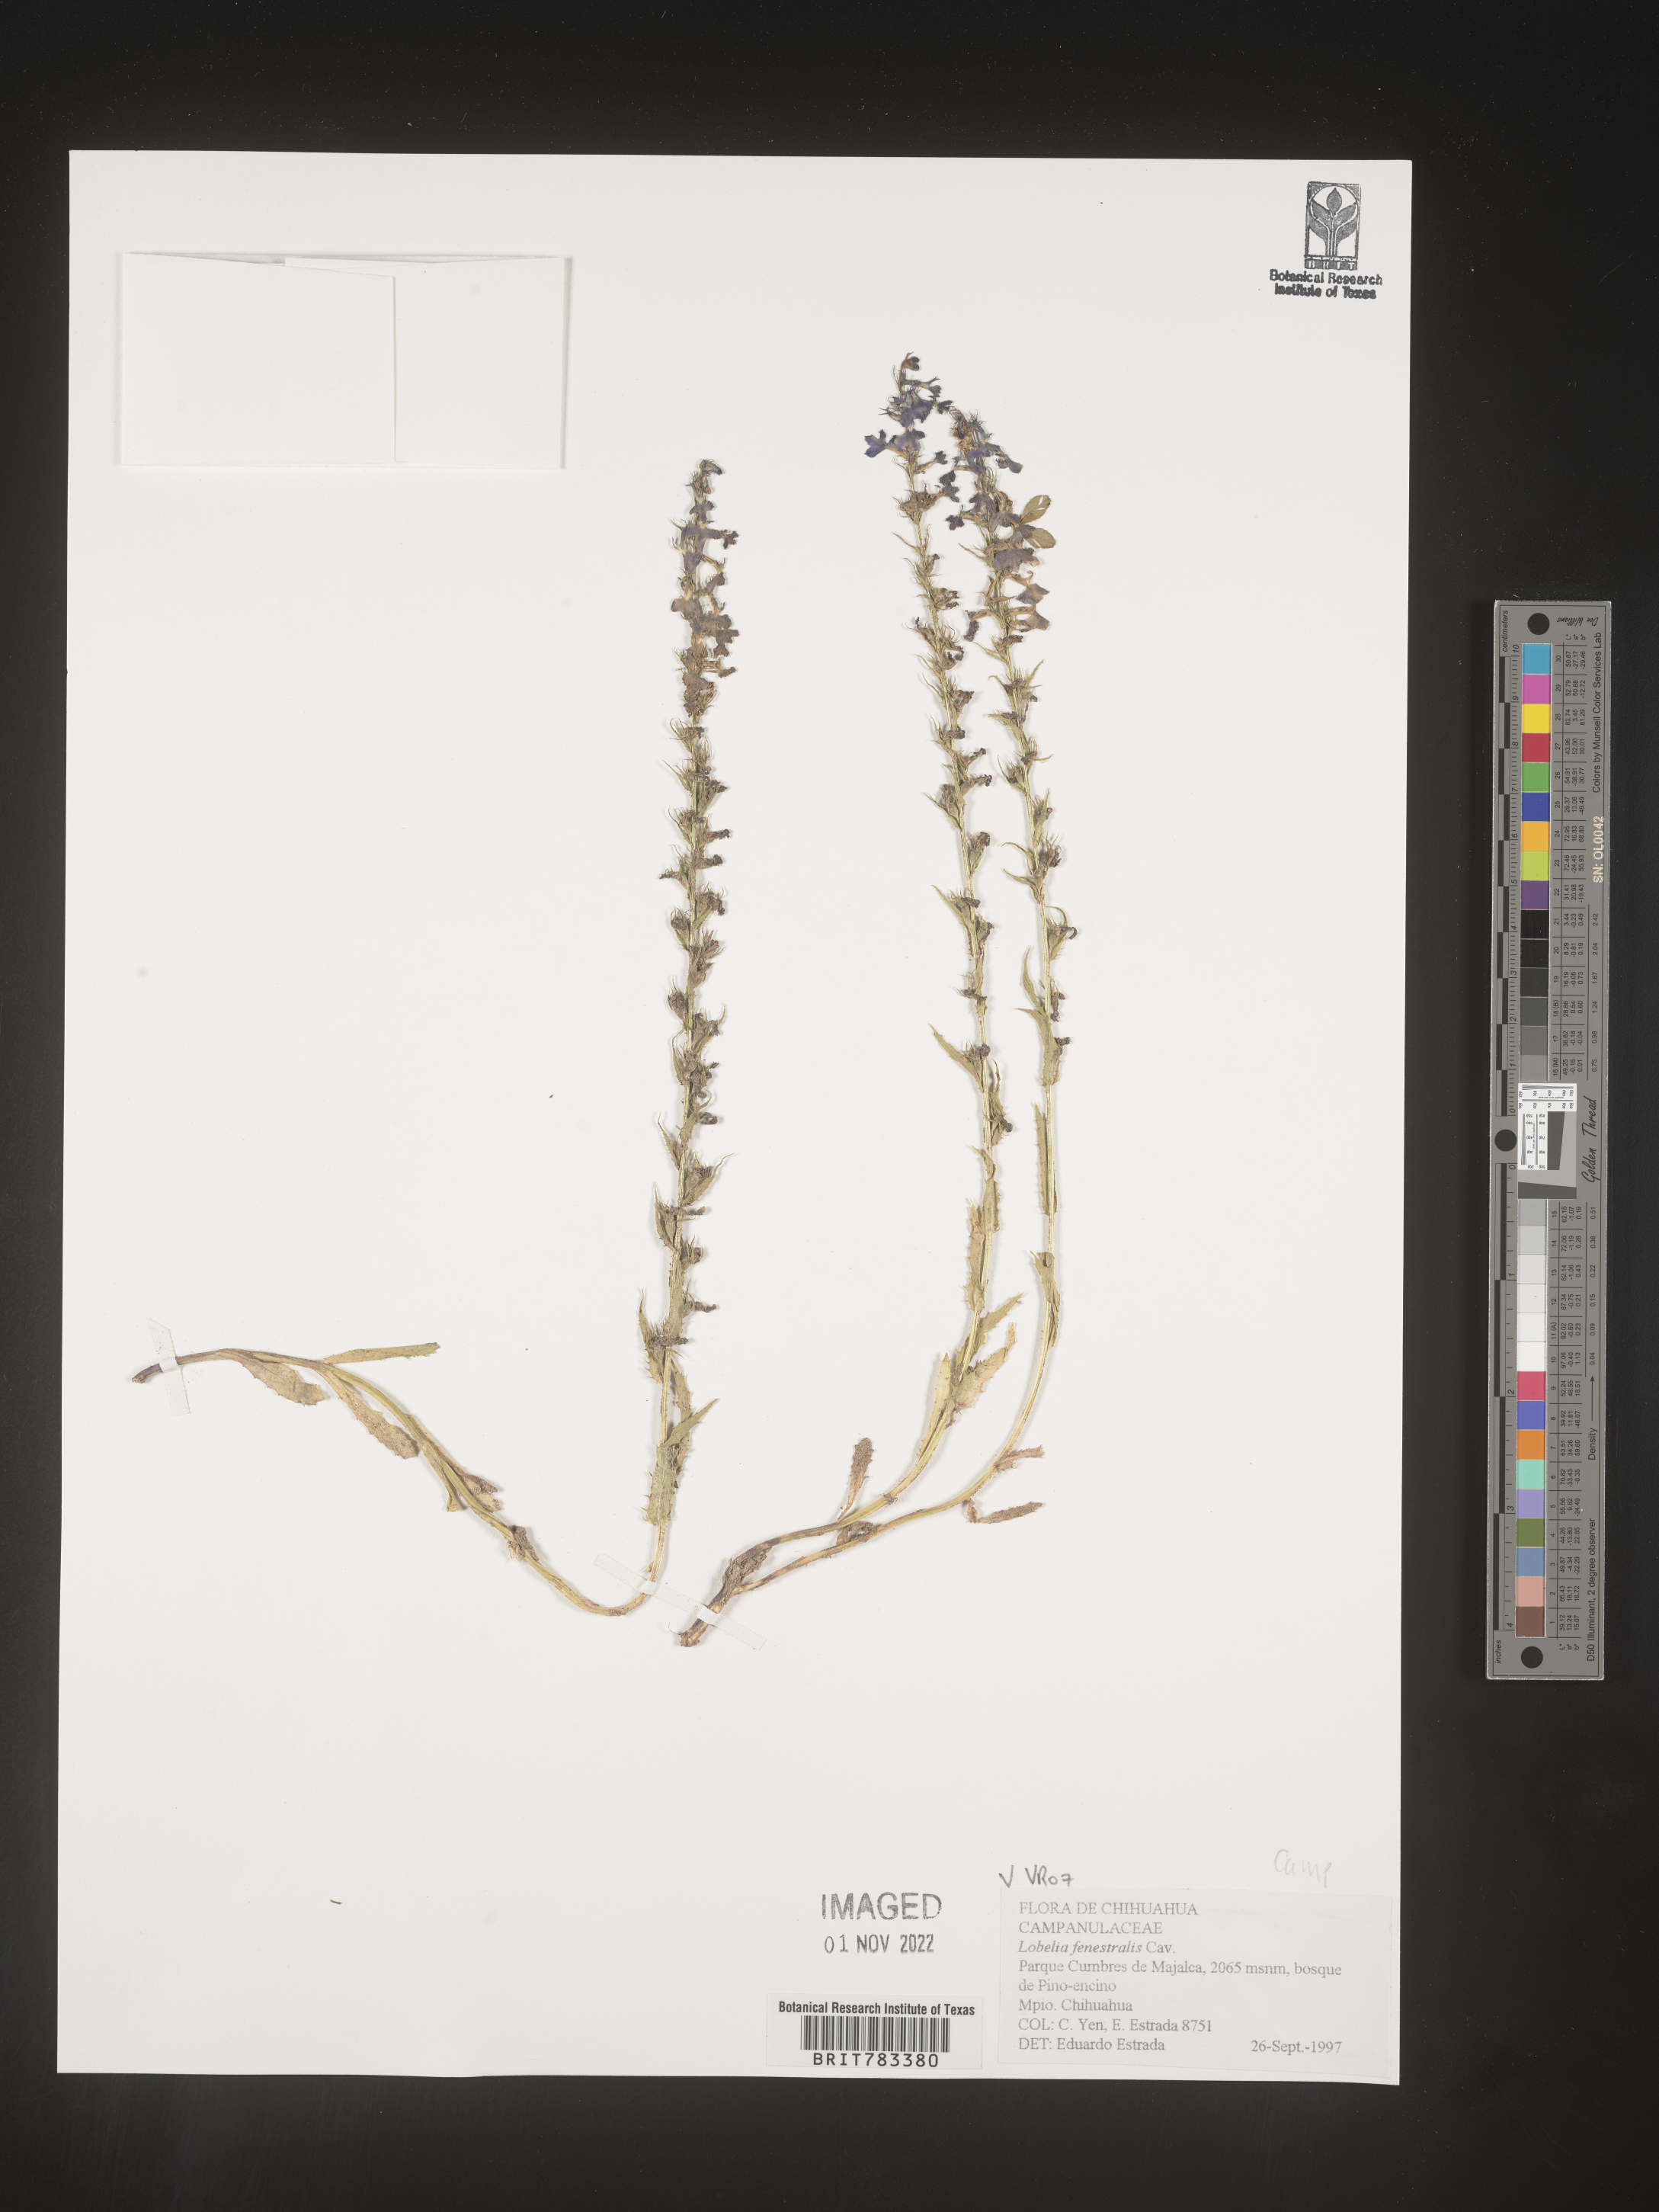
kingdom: Plantae
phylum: Tracheophyta
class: Magnoliopsida
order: Asterales
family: Campanulaceae
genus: Lobelia
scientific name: Lobelia
